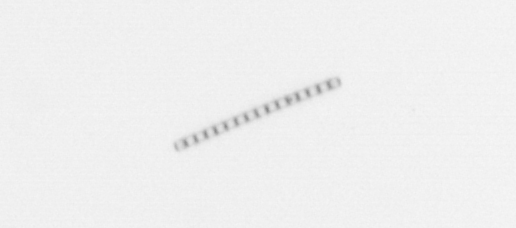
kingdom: Chromista
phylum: Ochrophyta
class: Bacillariophyceae
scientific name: Bacillariophyceae
